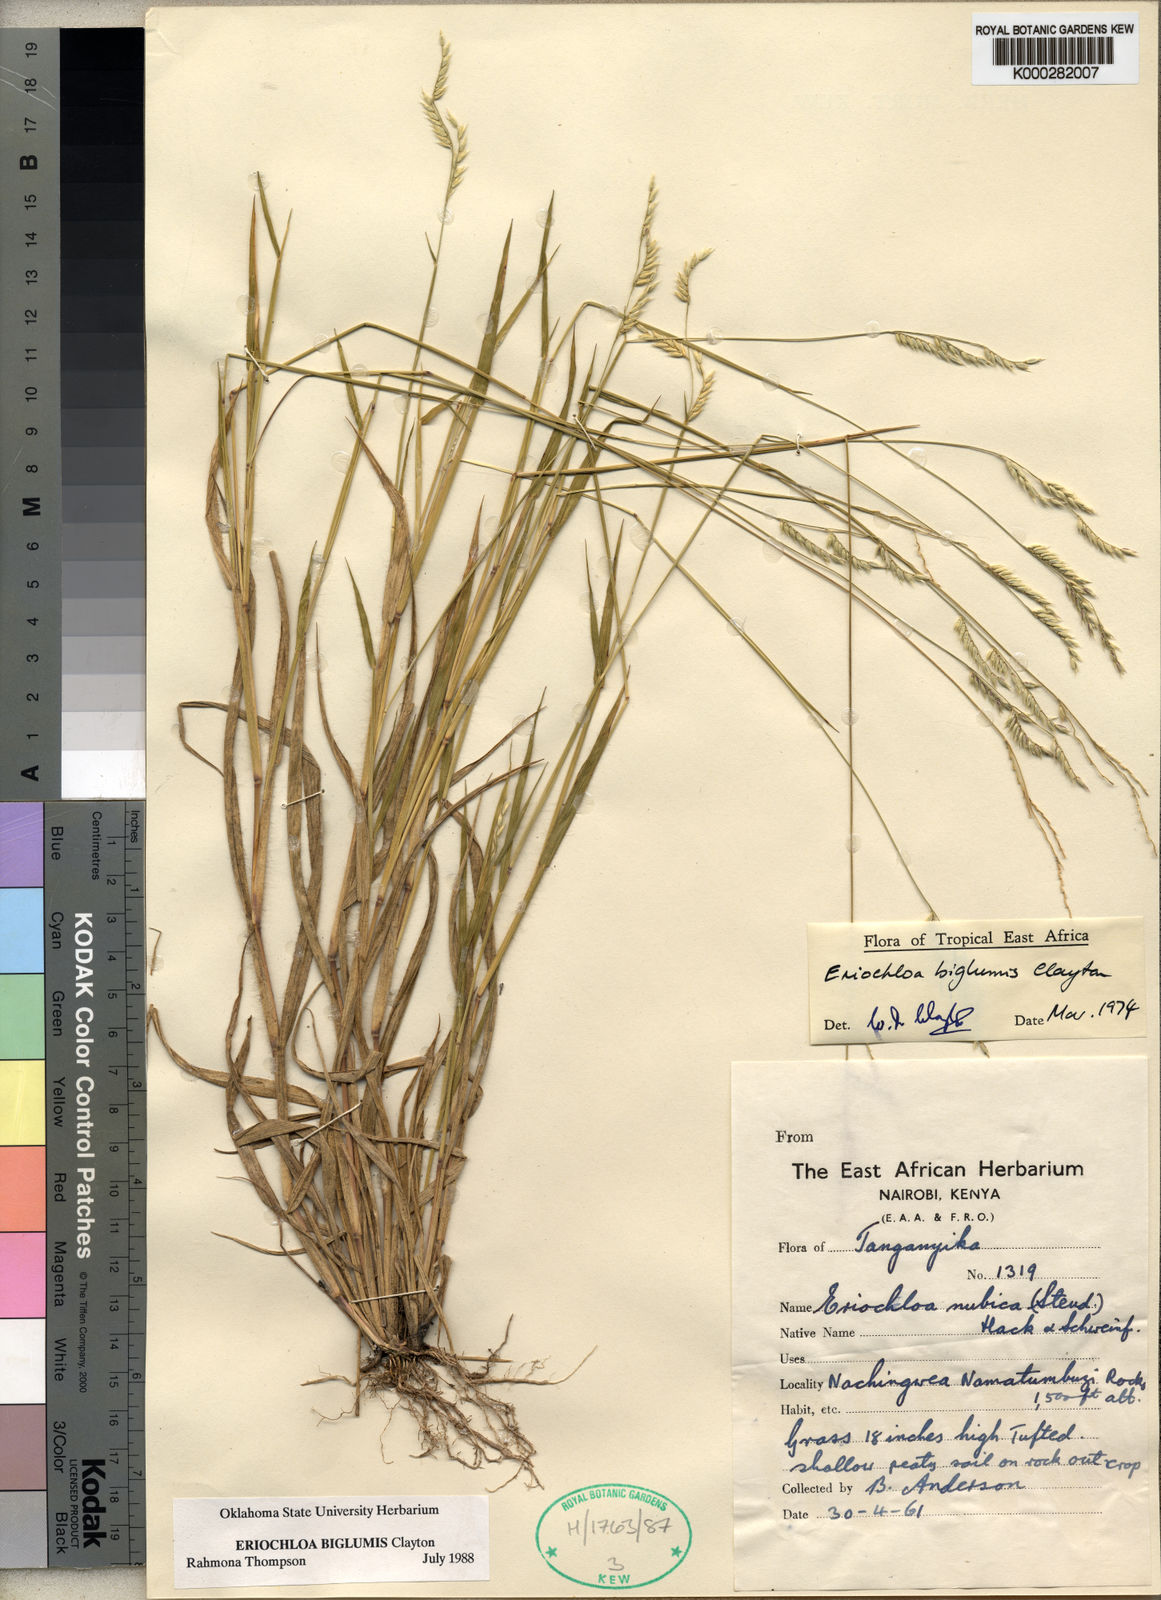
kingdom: Plantae
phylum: Tracheophyta
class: Liliopsida
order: Poales
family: Poaceae
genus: Eriochloa
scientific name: Eriochloa rovumensis
